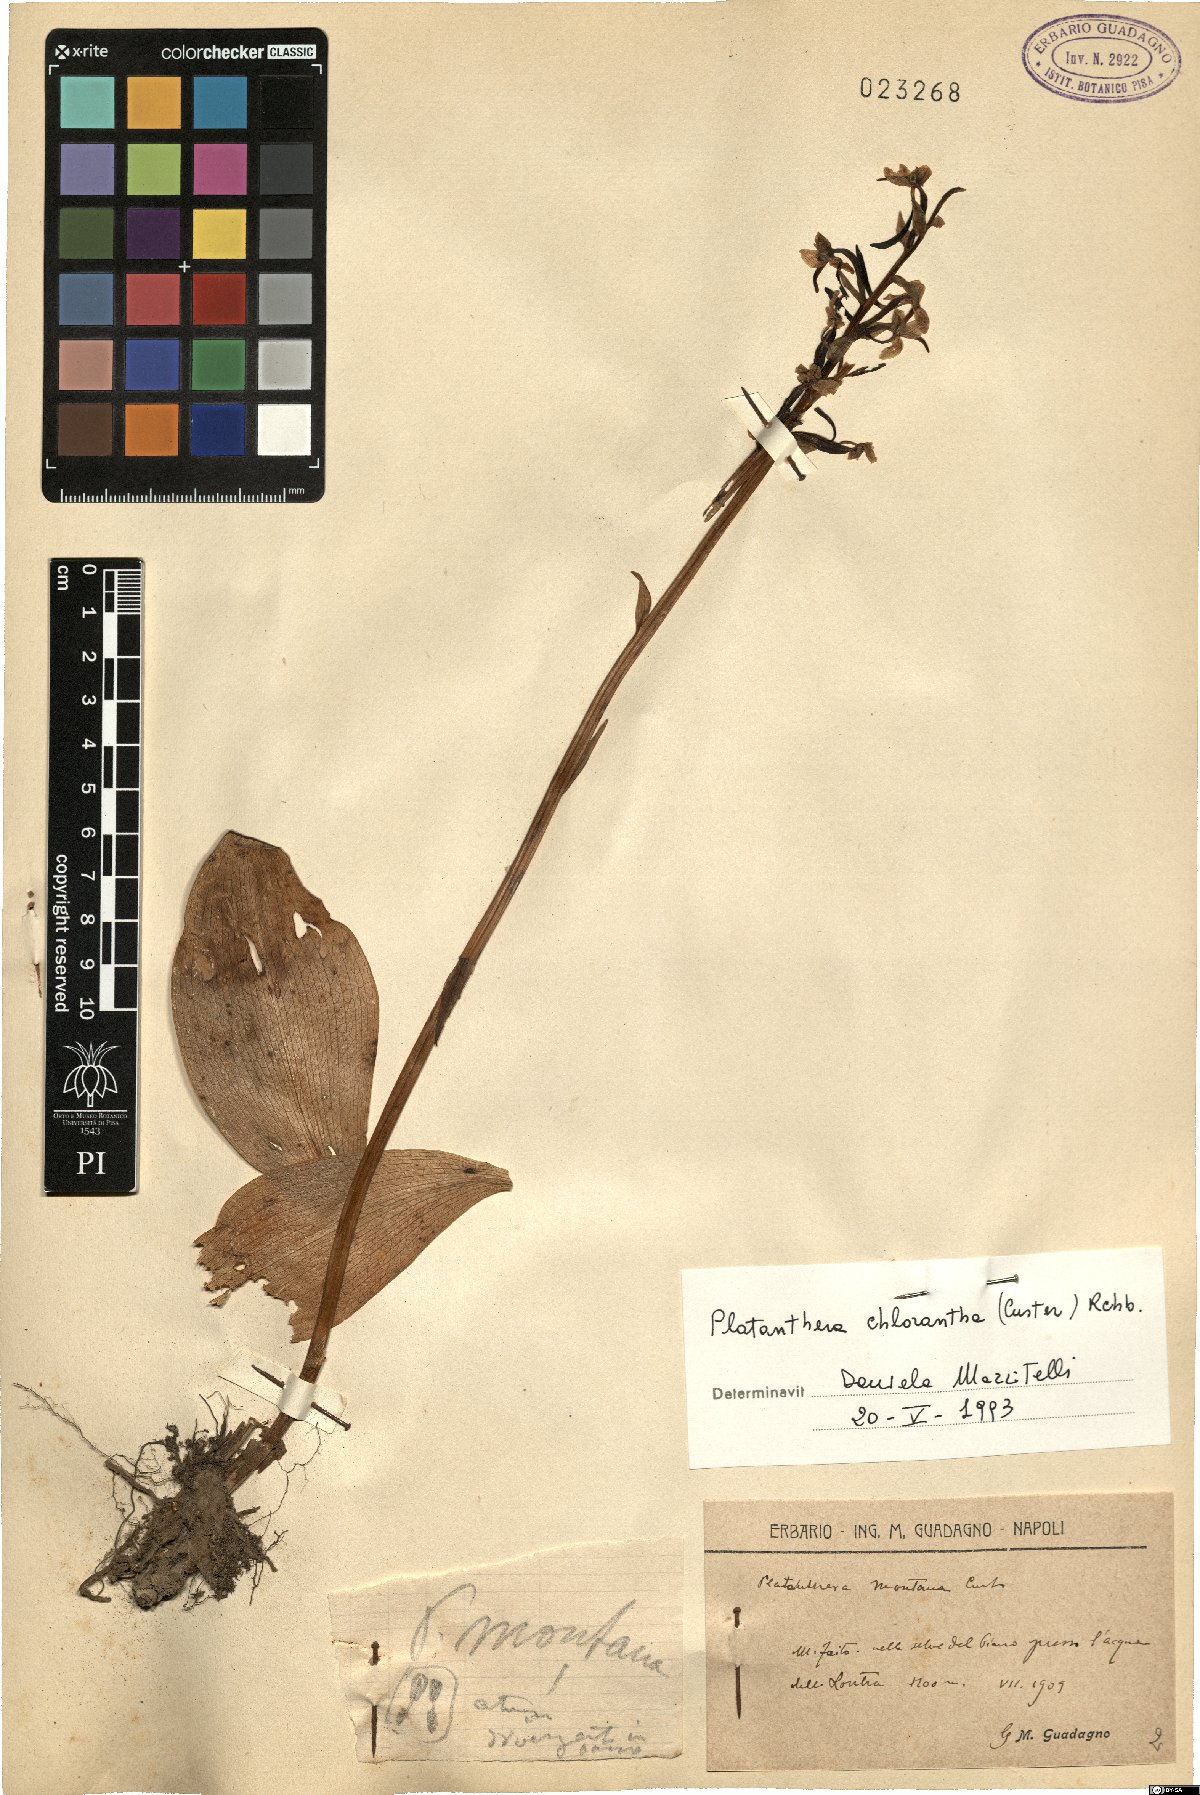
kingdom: Plantae
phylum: Tracheophyta
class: Liliopsida
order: Asparagales
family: Orchidaceae
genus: Platanthera
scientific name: Platanthera chlorantha
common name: Greater butterfly-orchid
